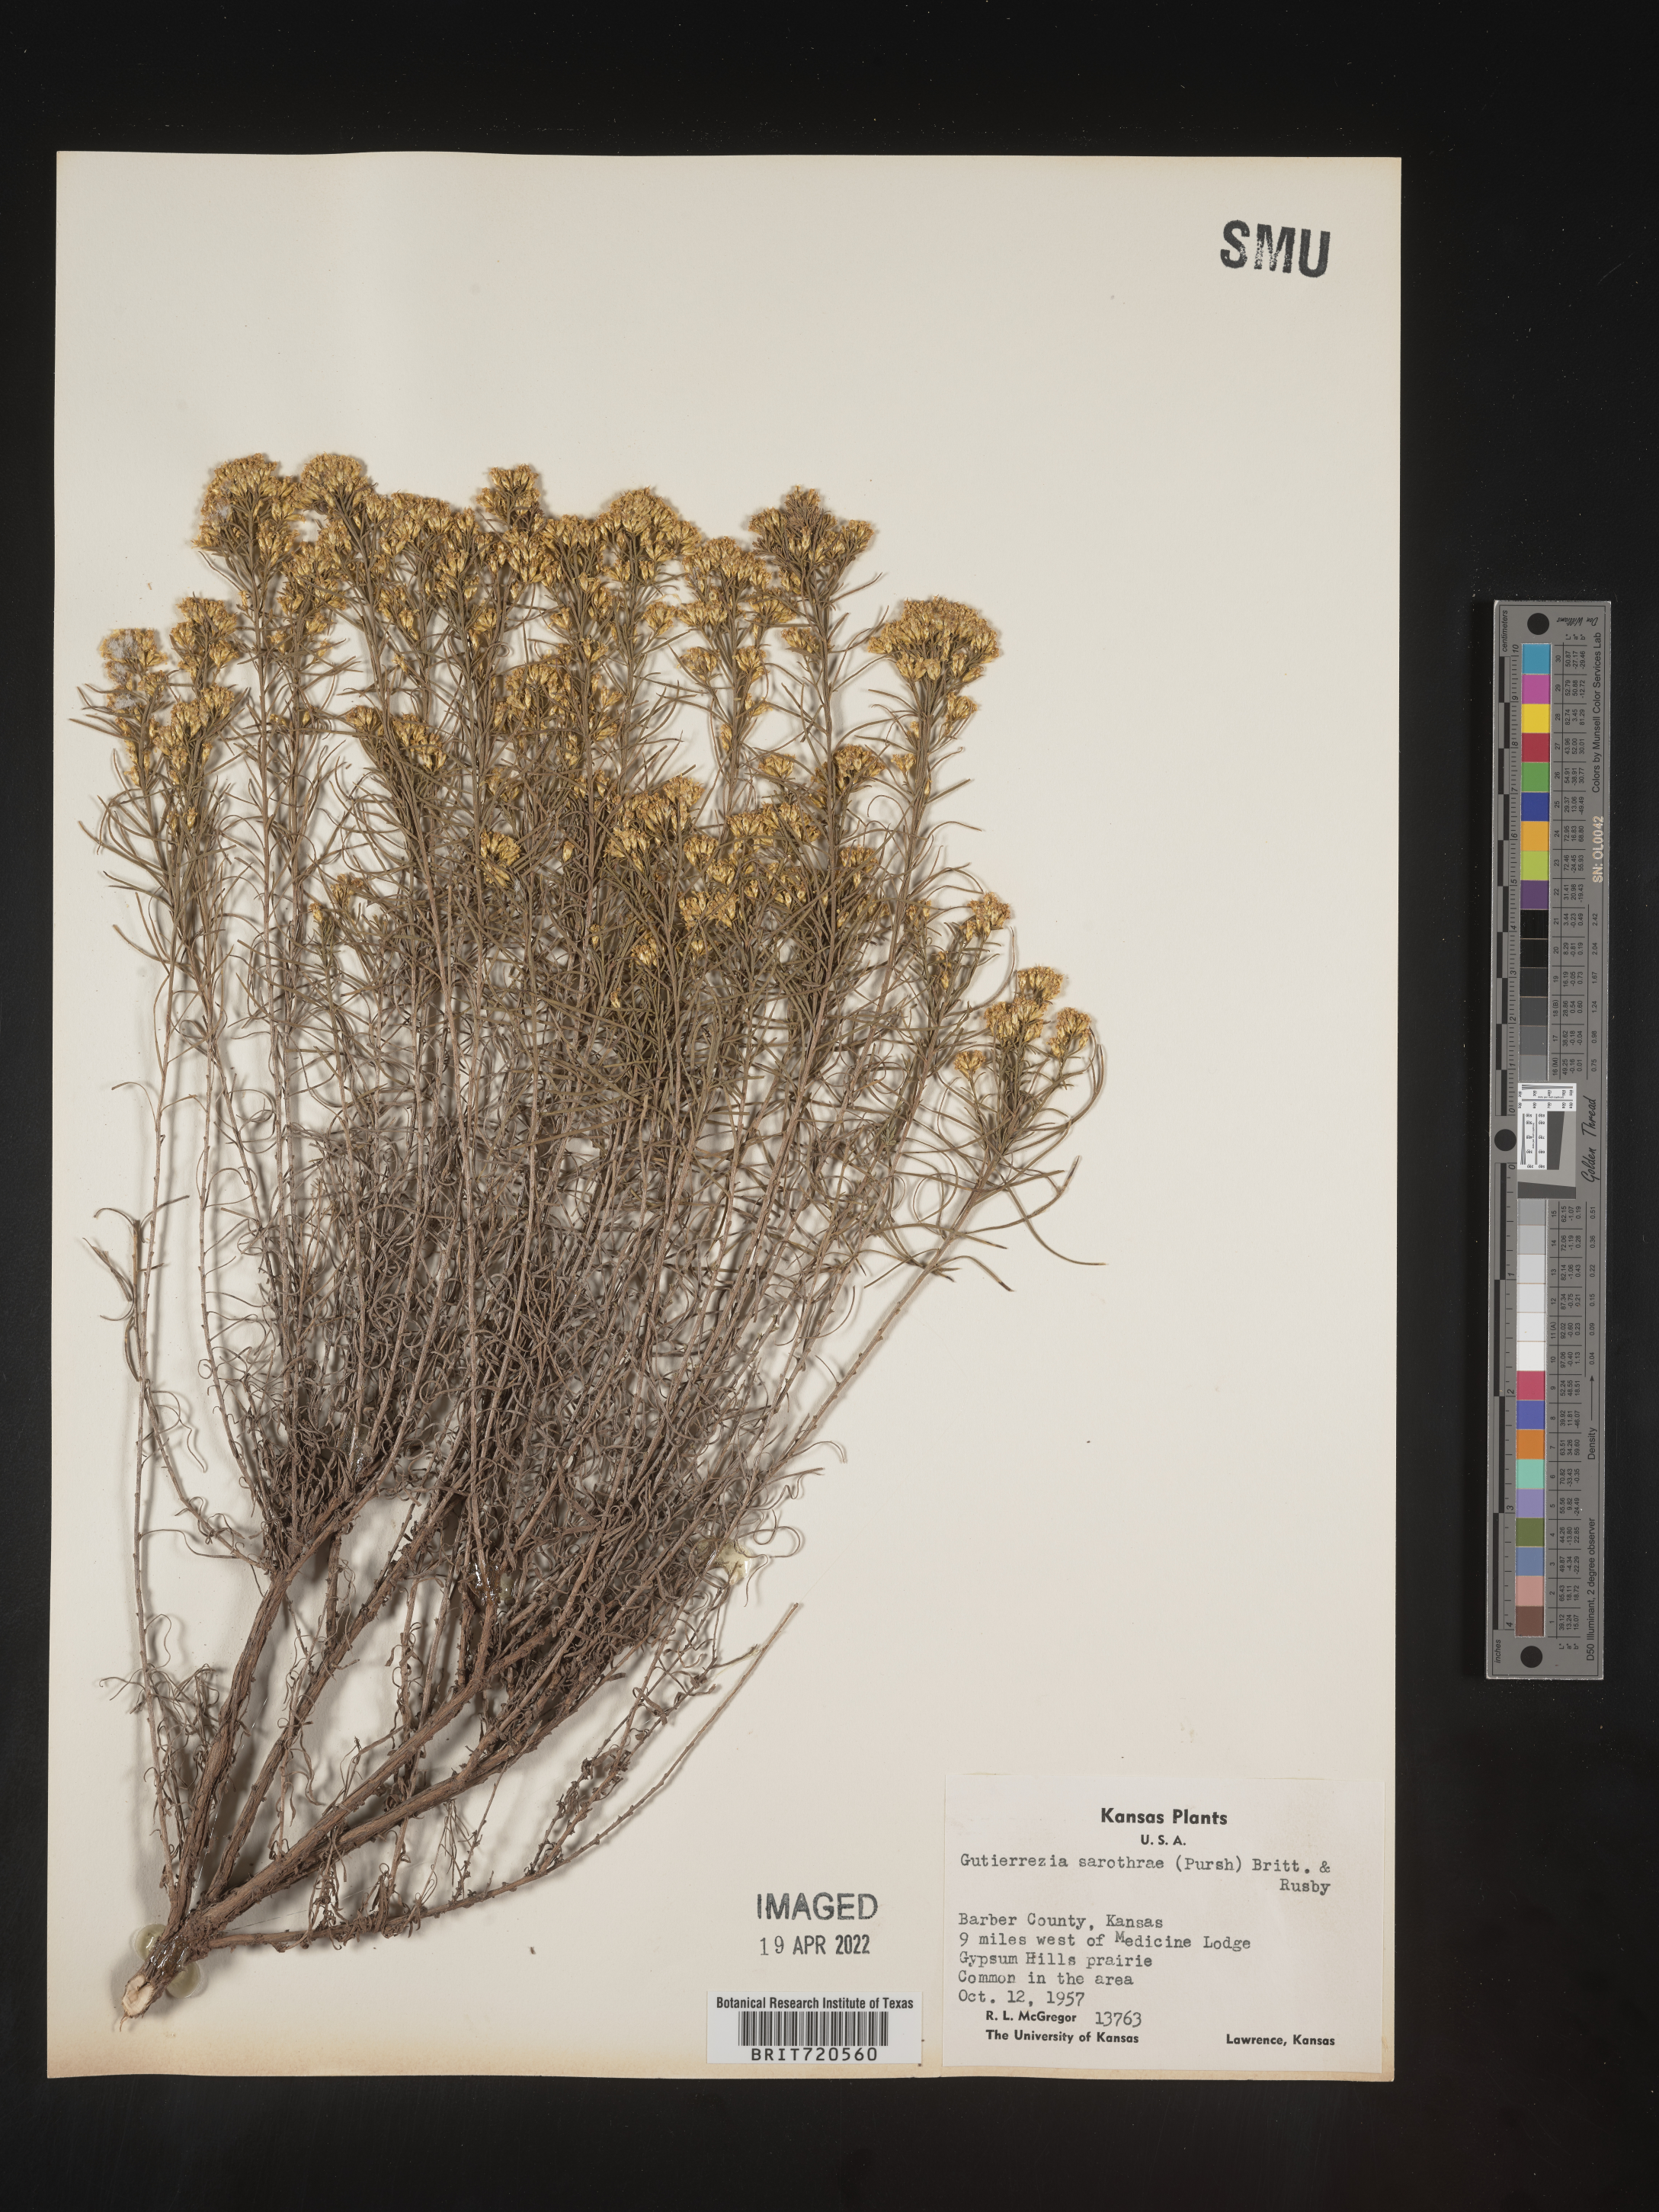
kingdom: Plantae
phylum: Tracheophyta
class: Magnoliopsida
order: Asterales
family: Asteraceae
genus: Gutierrezia
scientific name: Gutierrezia sarothrae
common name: Broom snakeweed
